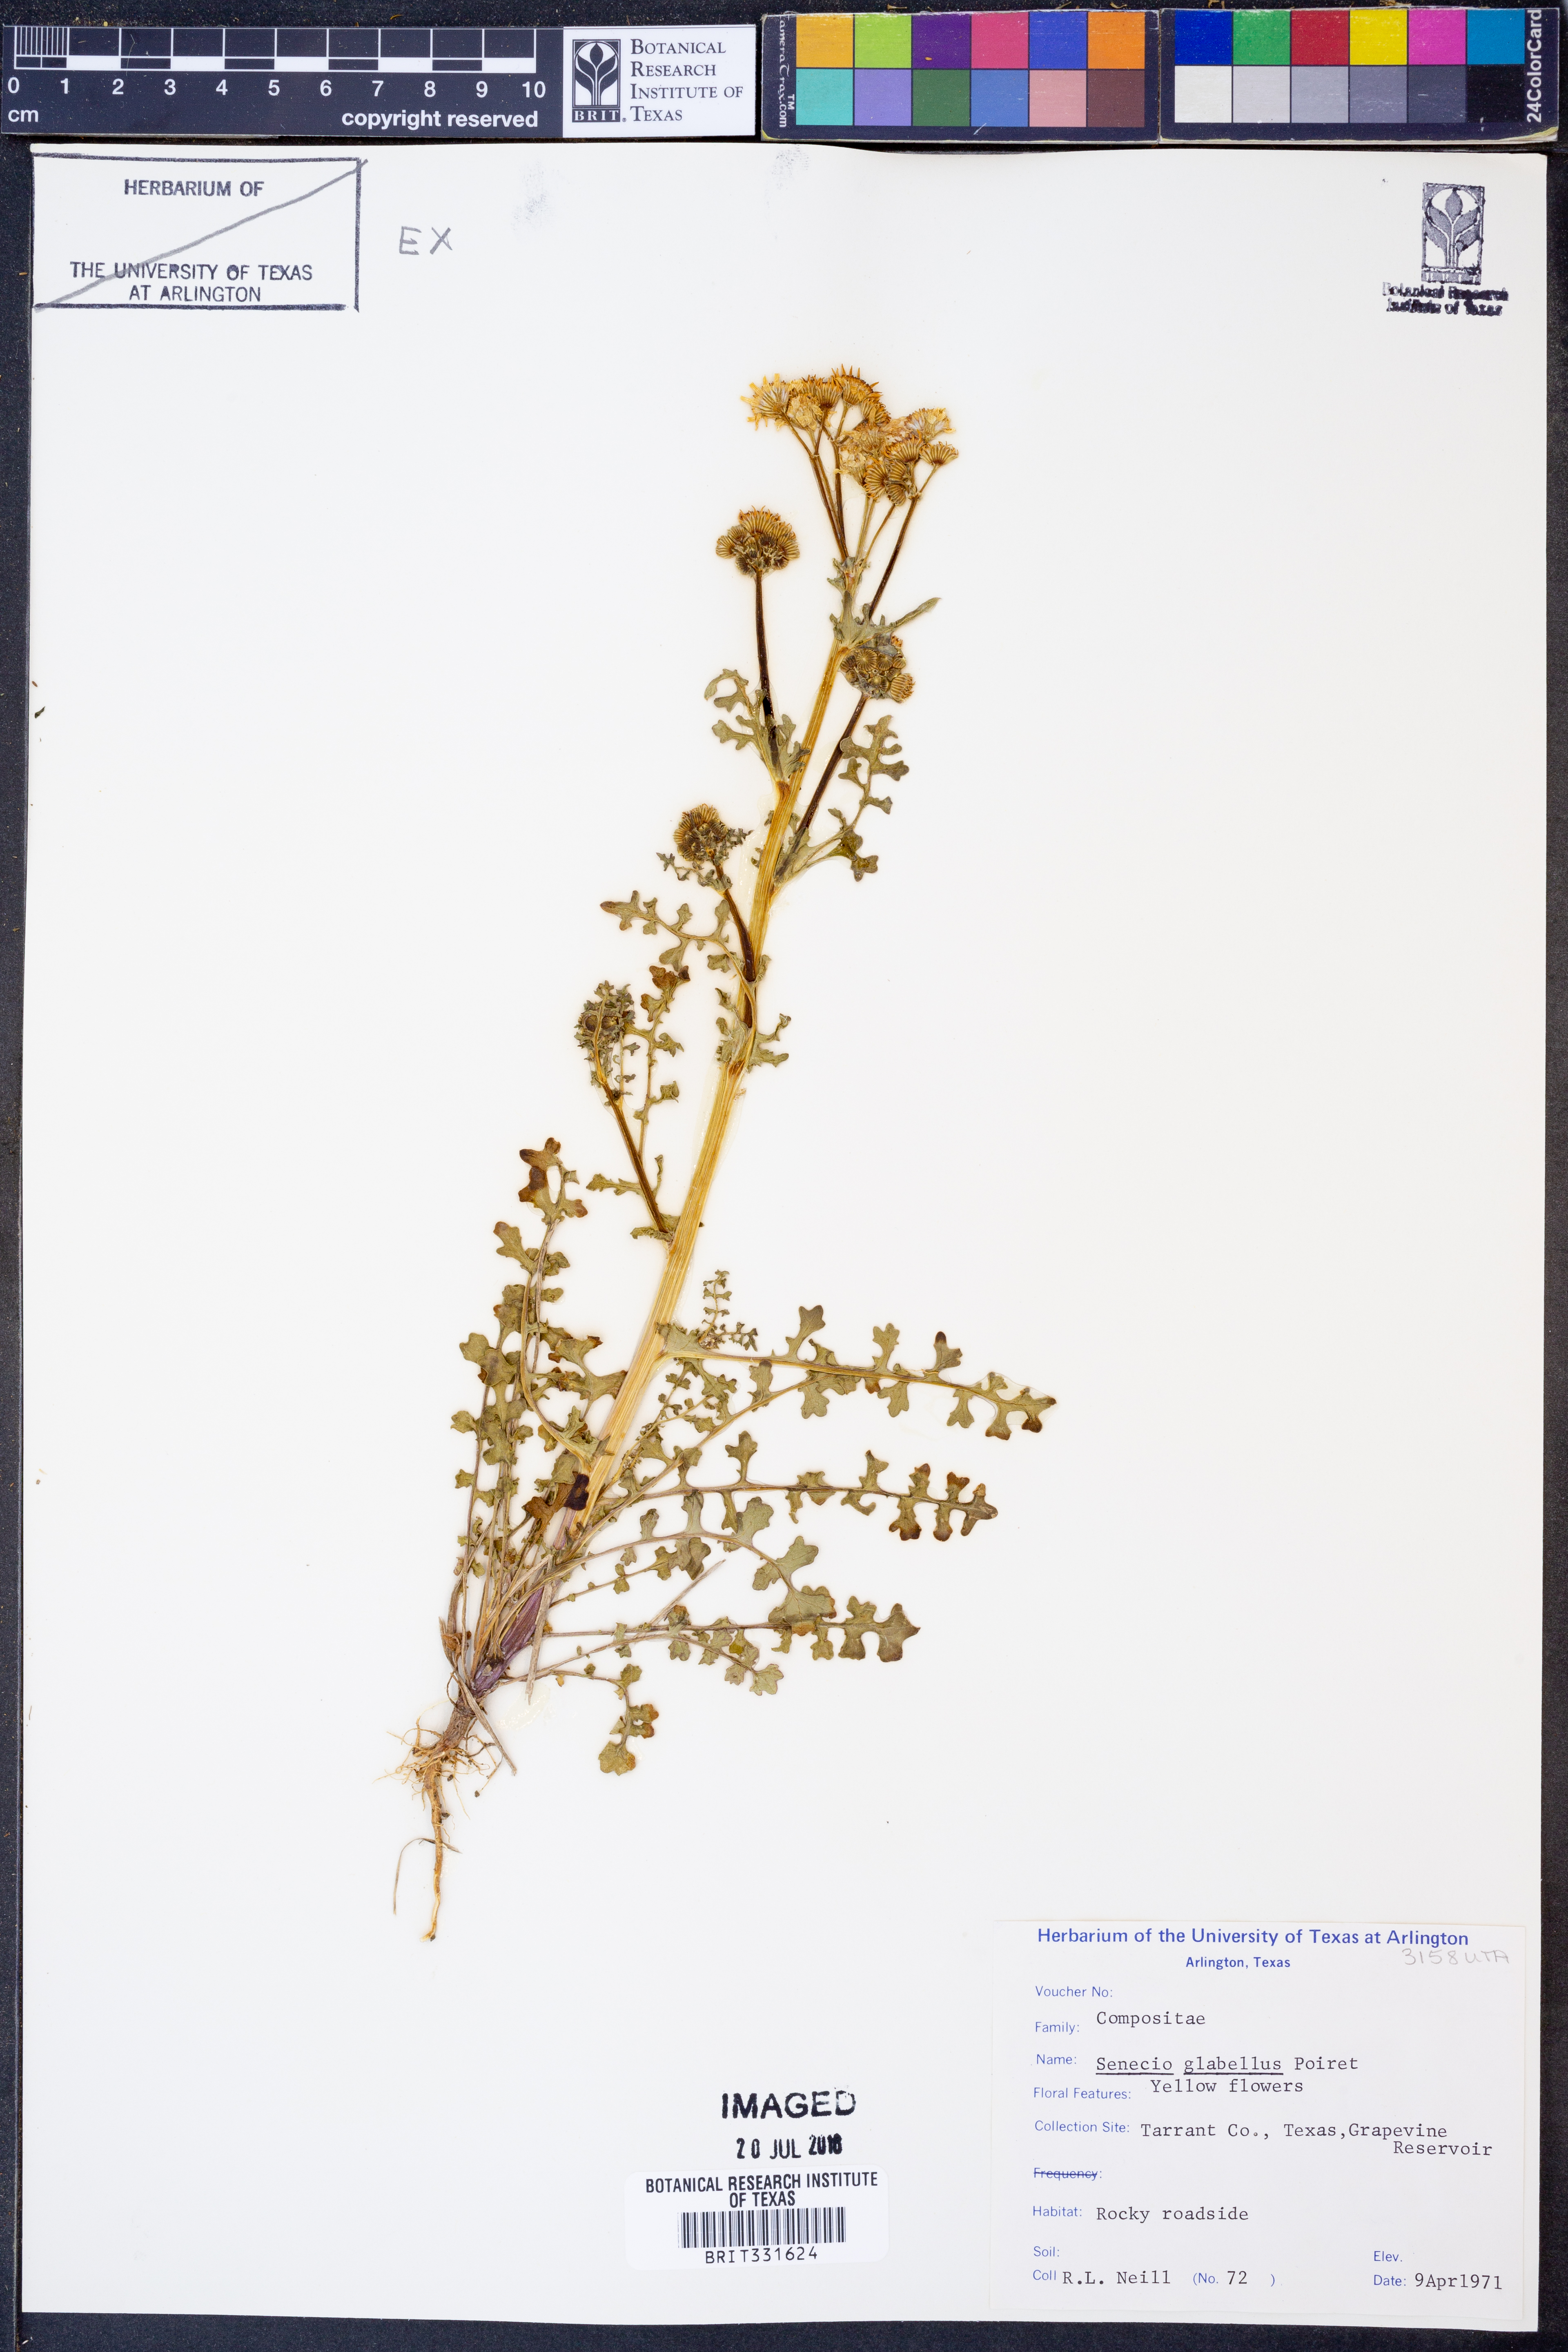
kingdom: Plantae
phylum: Tracheophyta
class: Magnoliopsida
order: Asterales
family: Asteraceae
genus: Tephroseris
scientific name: Tephroseris praticola
